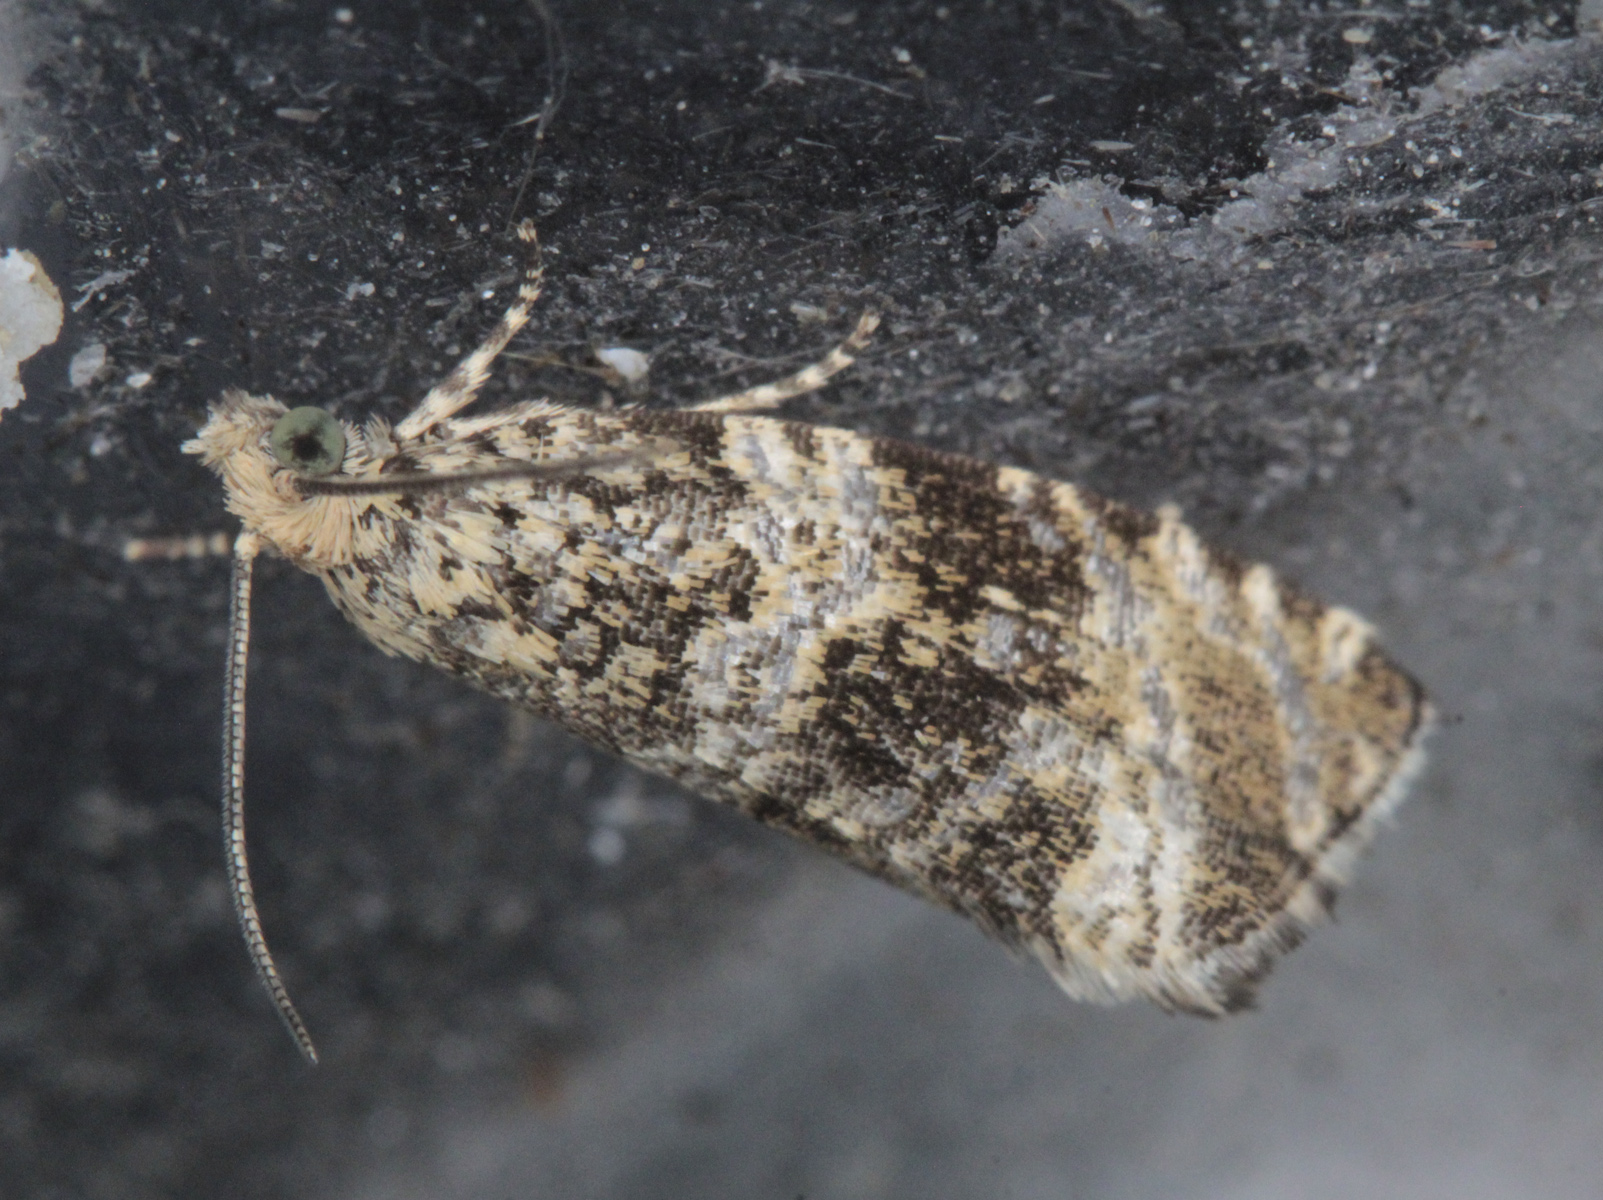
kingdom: Animalia
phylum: Arthropoda
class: Insecta
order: Lepidoptera
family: Tortricidae
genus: Syricoris
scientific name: Syricoris lacunana
